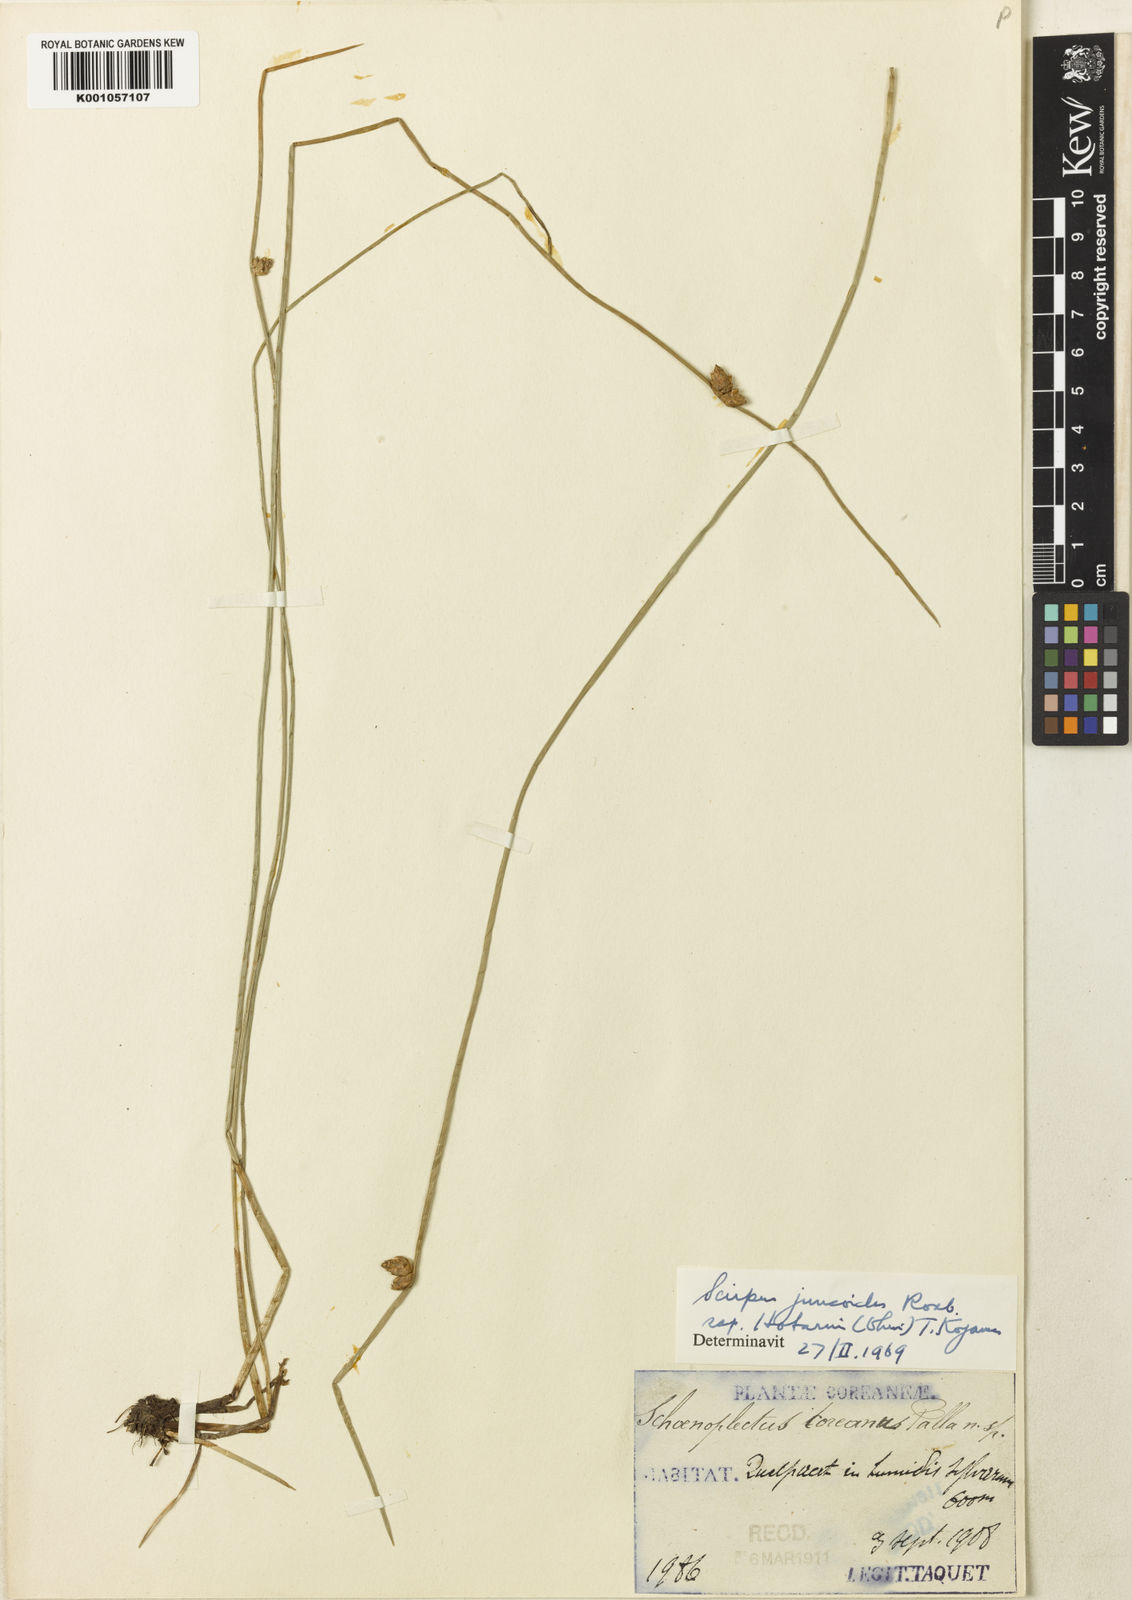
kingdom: Plantae
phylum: Tracheophyta
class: Liliopsida
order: Poales
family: Cyperaceae
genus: Schoenoplectiella
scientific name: Schoenoplectiella juncoides
